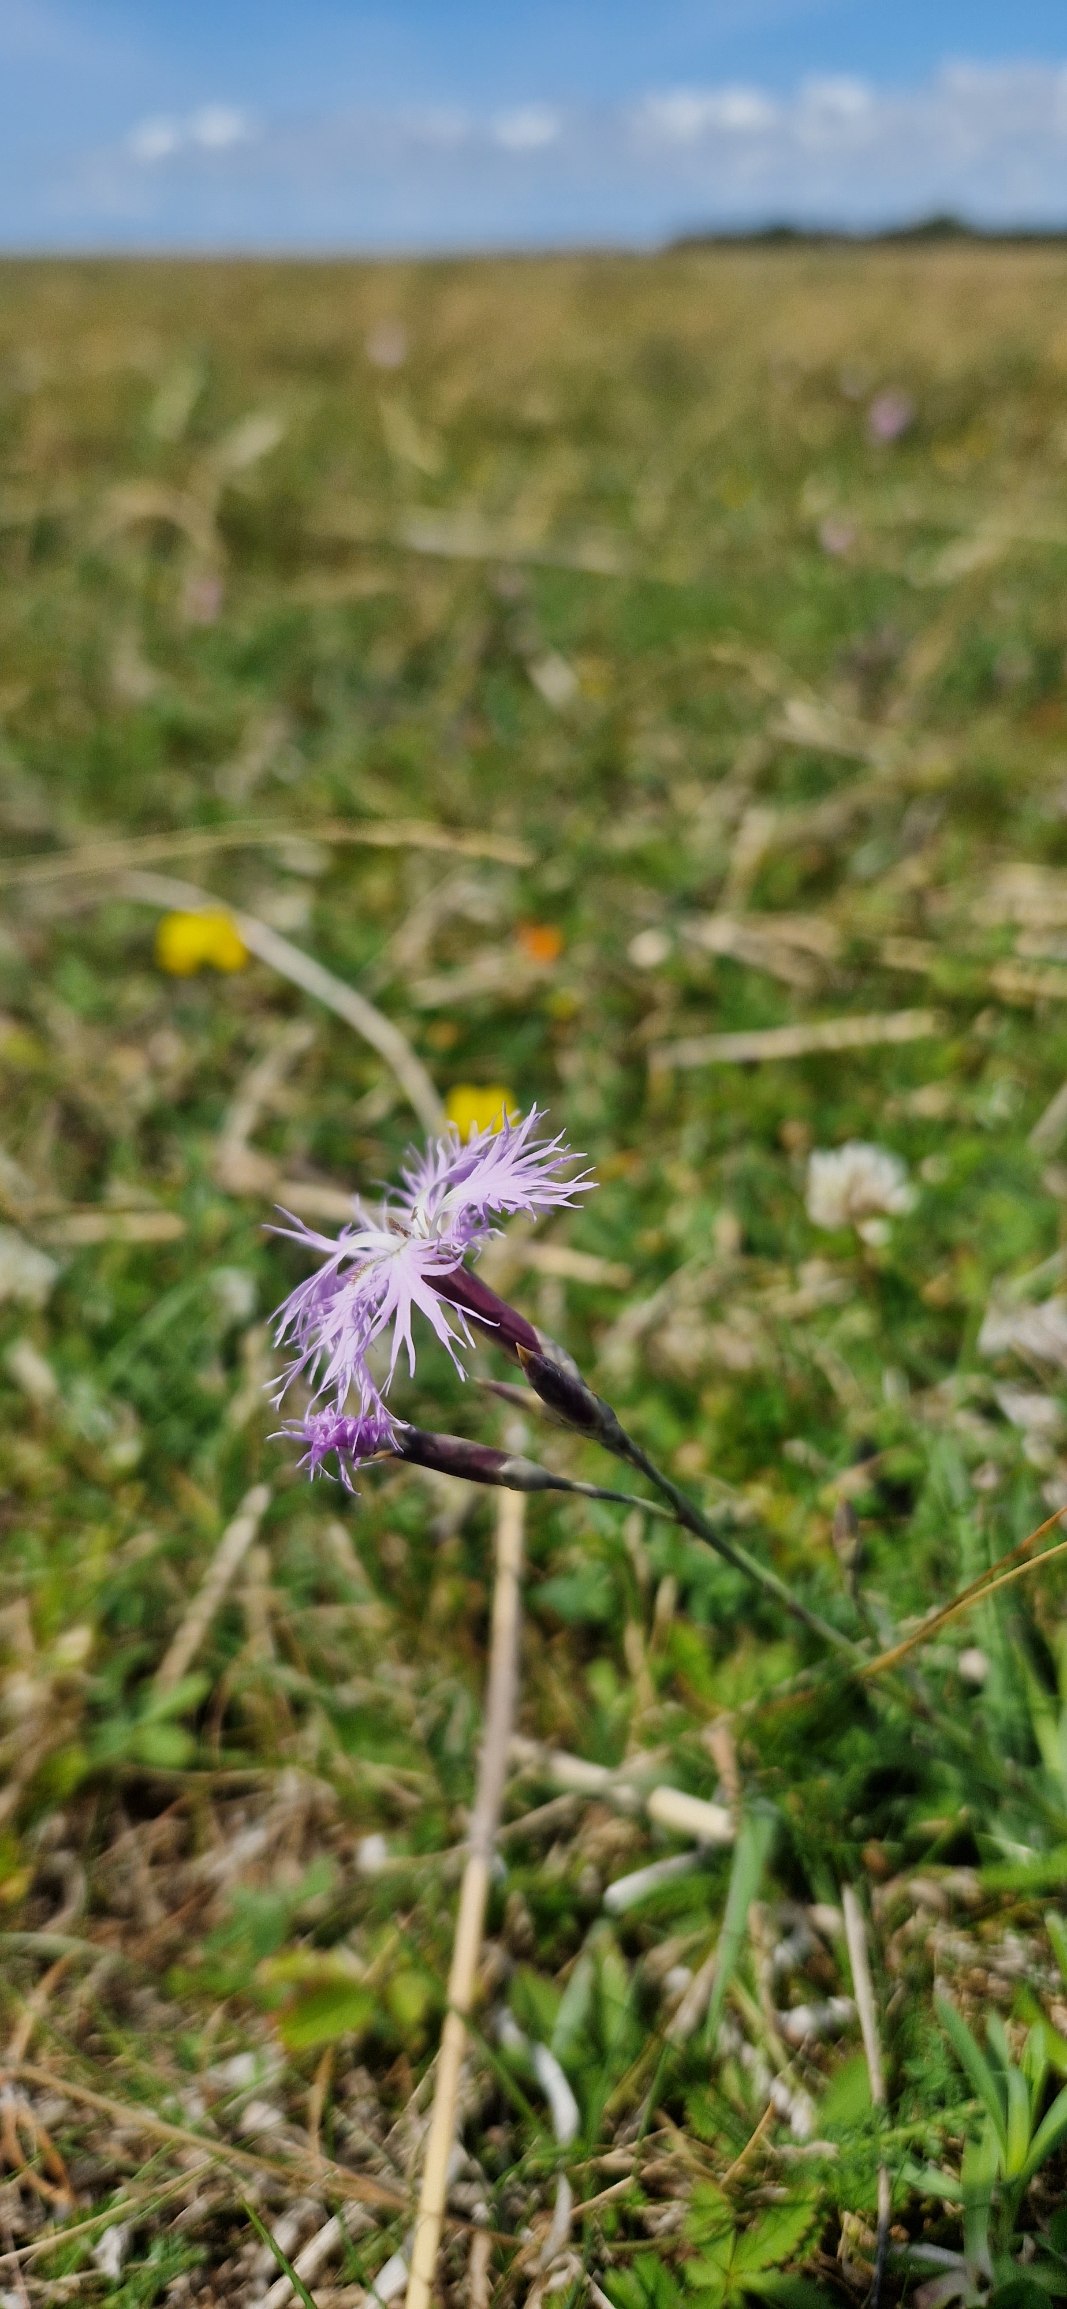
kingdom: Plantae
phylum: Tracheophyta
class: Magnoliopsida
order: Caryophyllales
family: Caryophyllaceae
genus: Dianthus
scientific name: Dianthus superbus
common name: Strand-nellike
